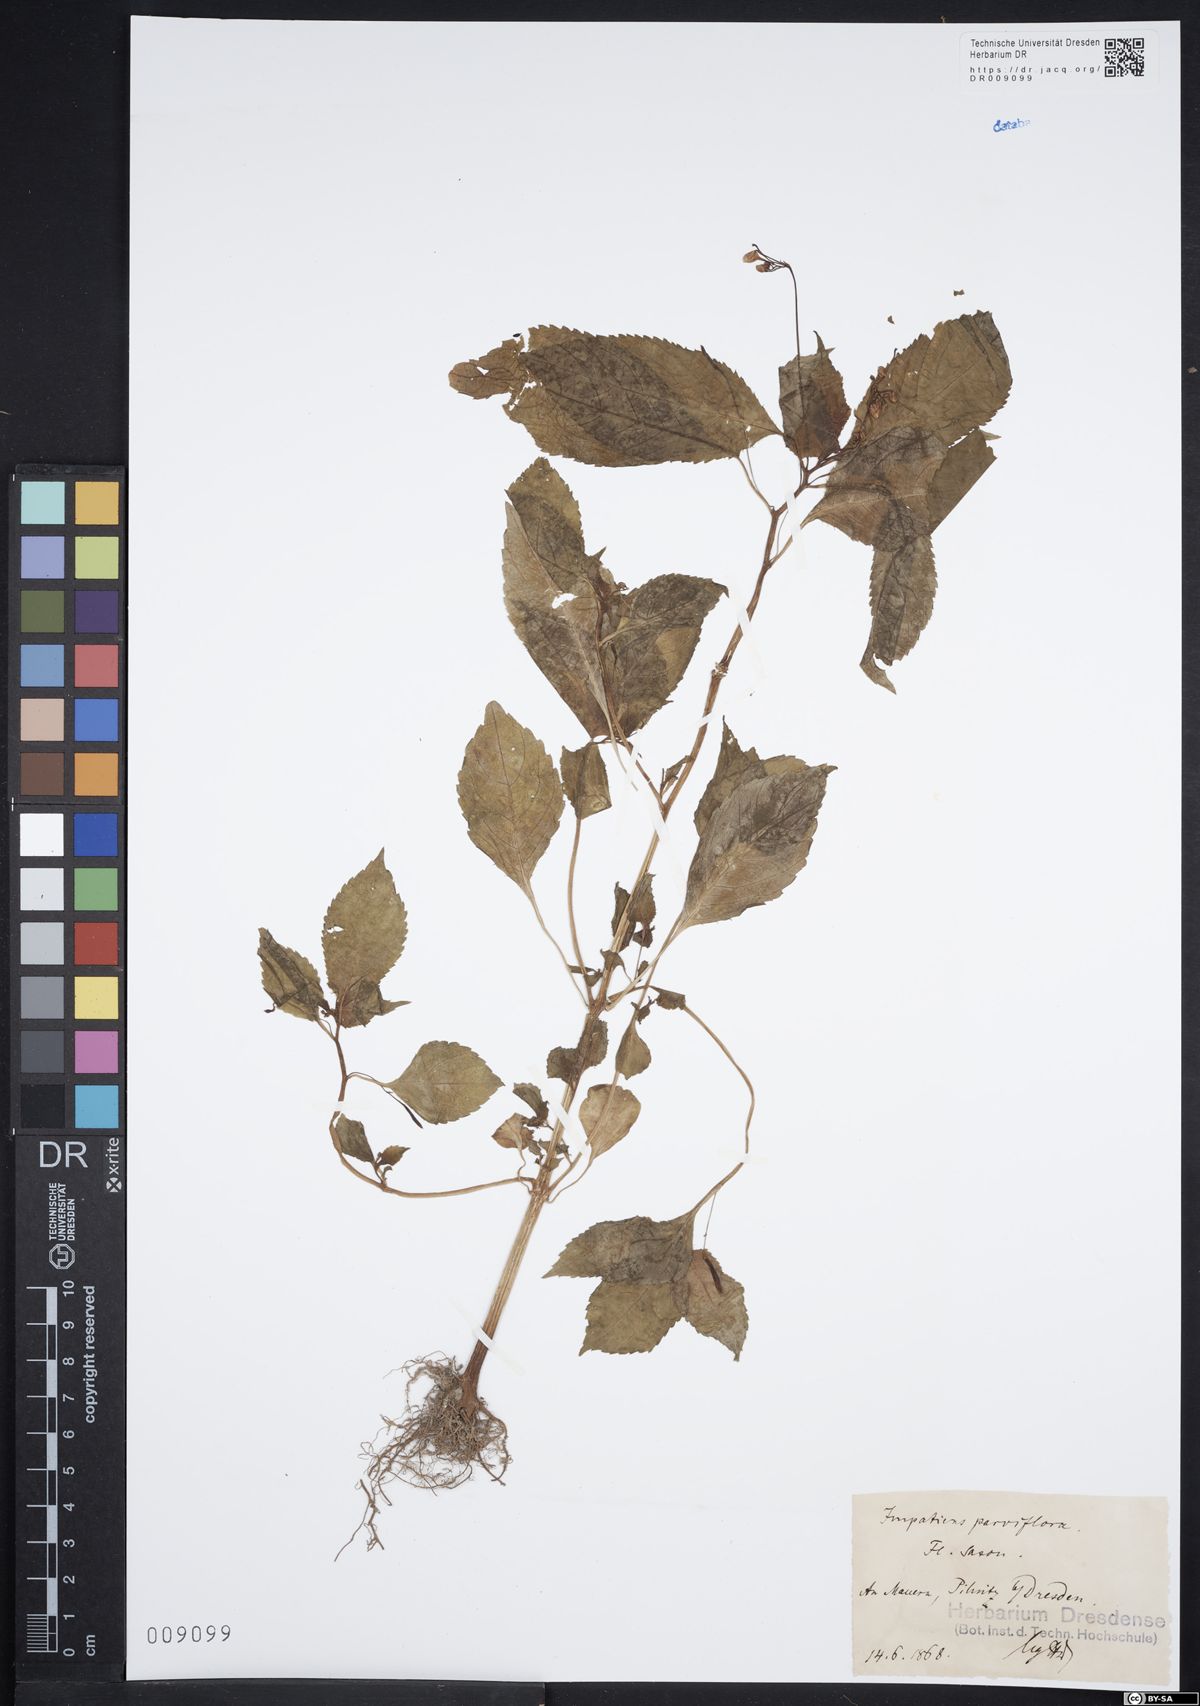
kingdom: Plantae
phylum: Tracheophyta
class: Magnoliopsida
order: Ericales
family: Balsaminaceae
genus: Impatiens
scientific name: Impatiens parviflora
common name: Small balsam
